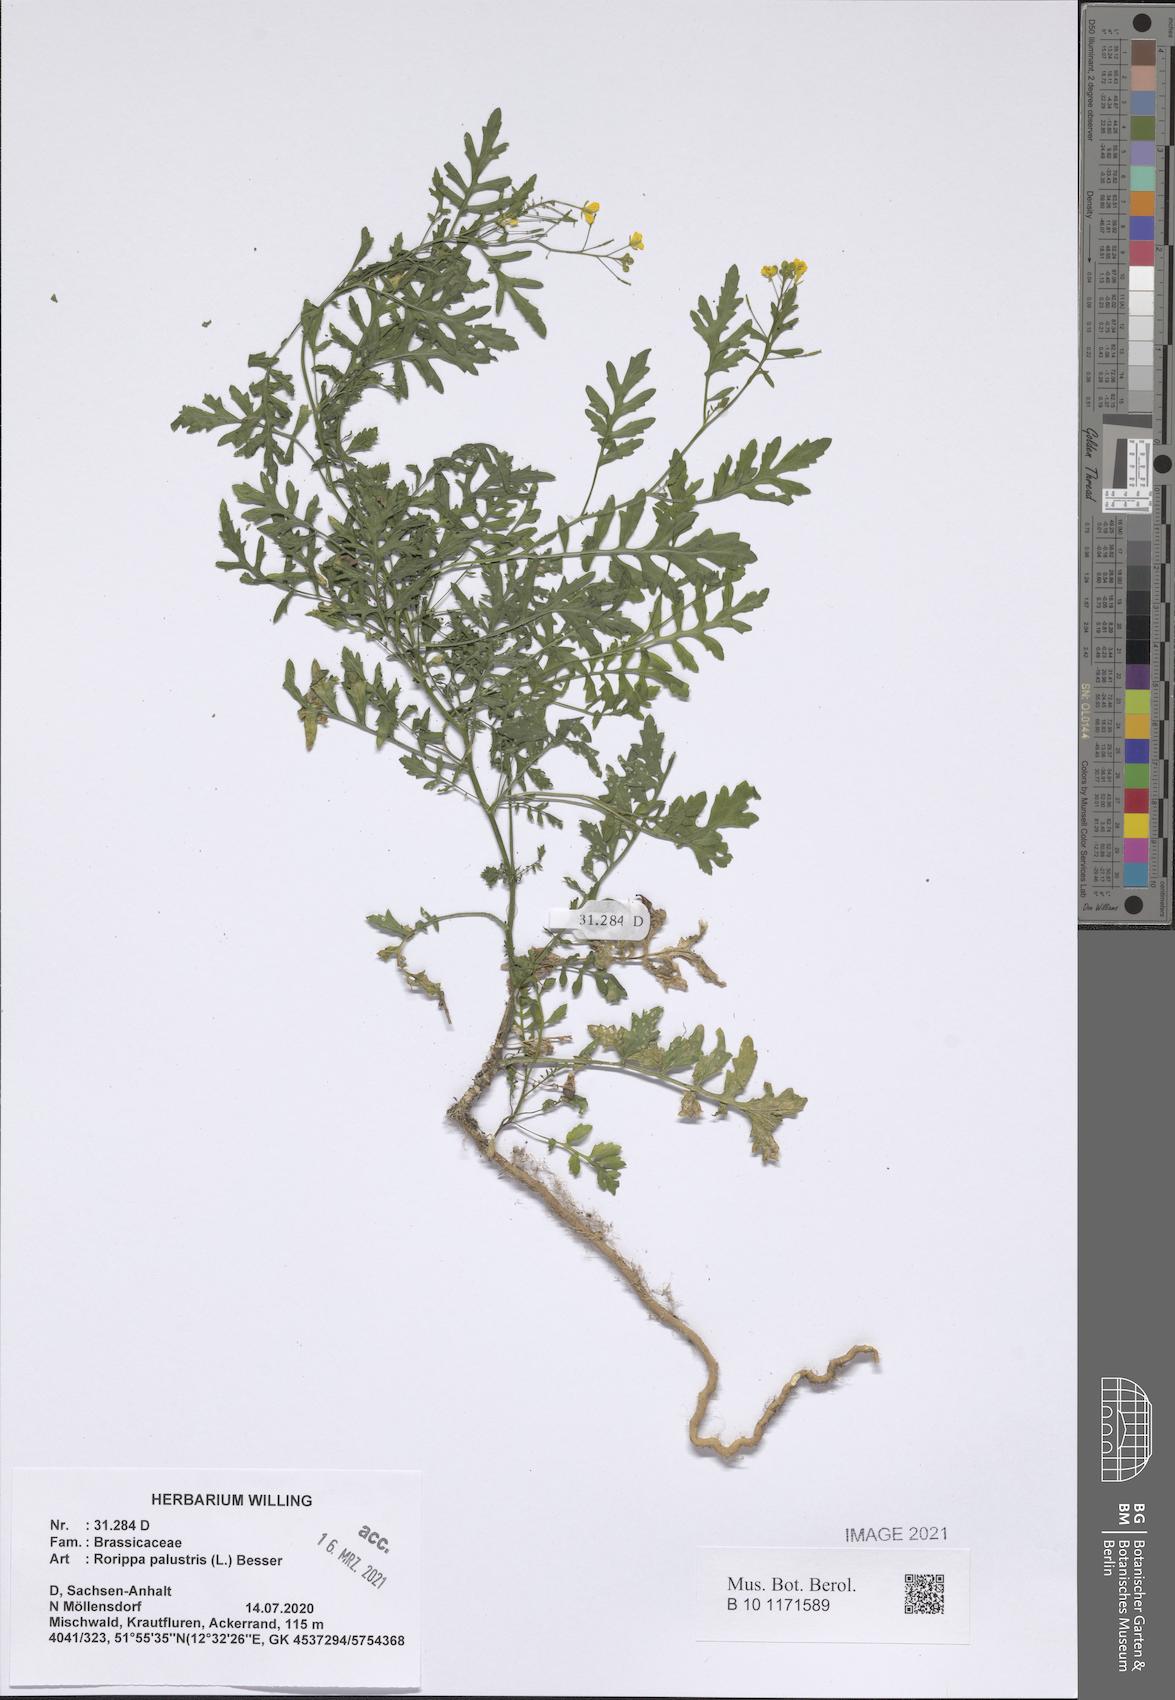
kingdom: Plantae
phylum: Tracheophyta
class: Magnoliopsida
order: Brassicales
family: Brassicaceae
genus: Rorippa
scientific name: Rorippa sylvestris
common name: Creeping yellowcress
